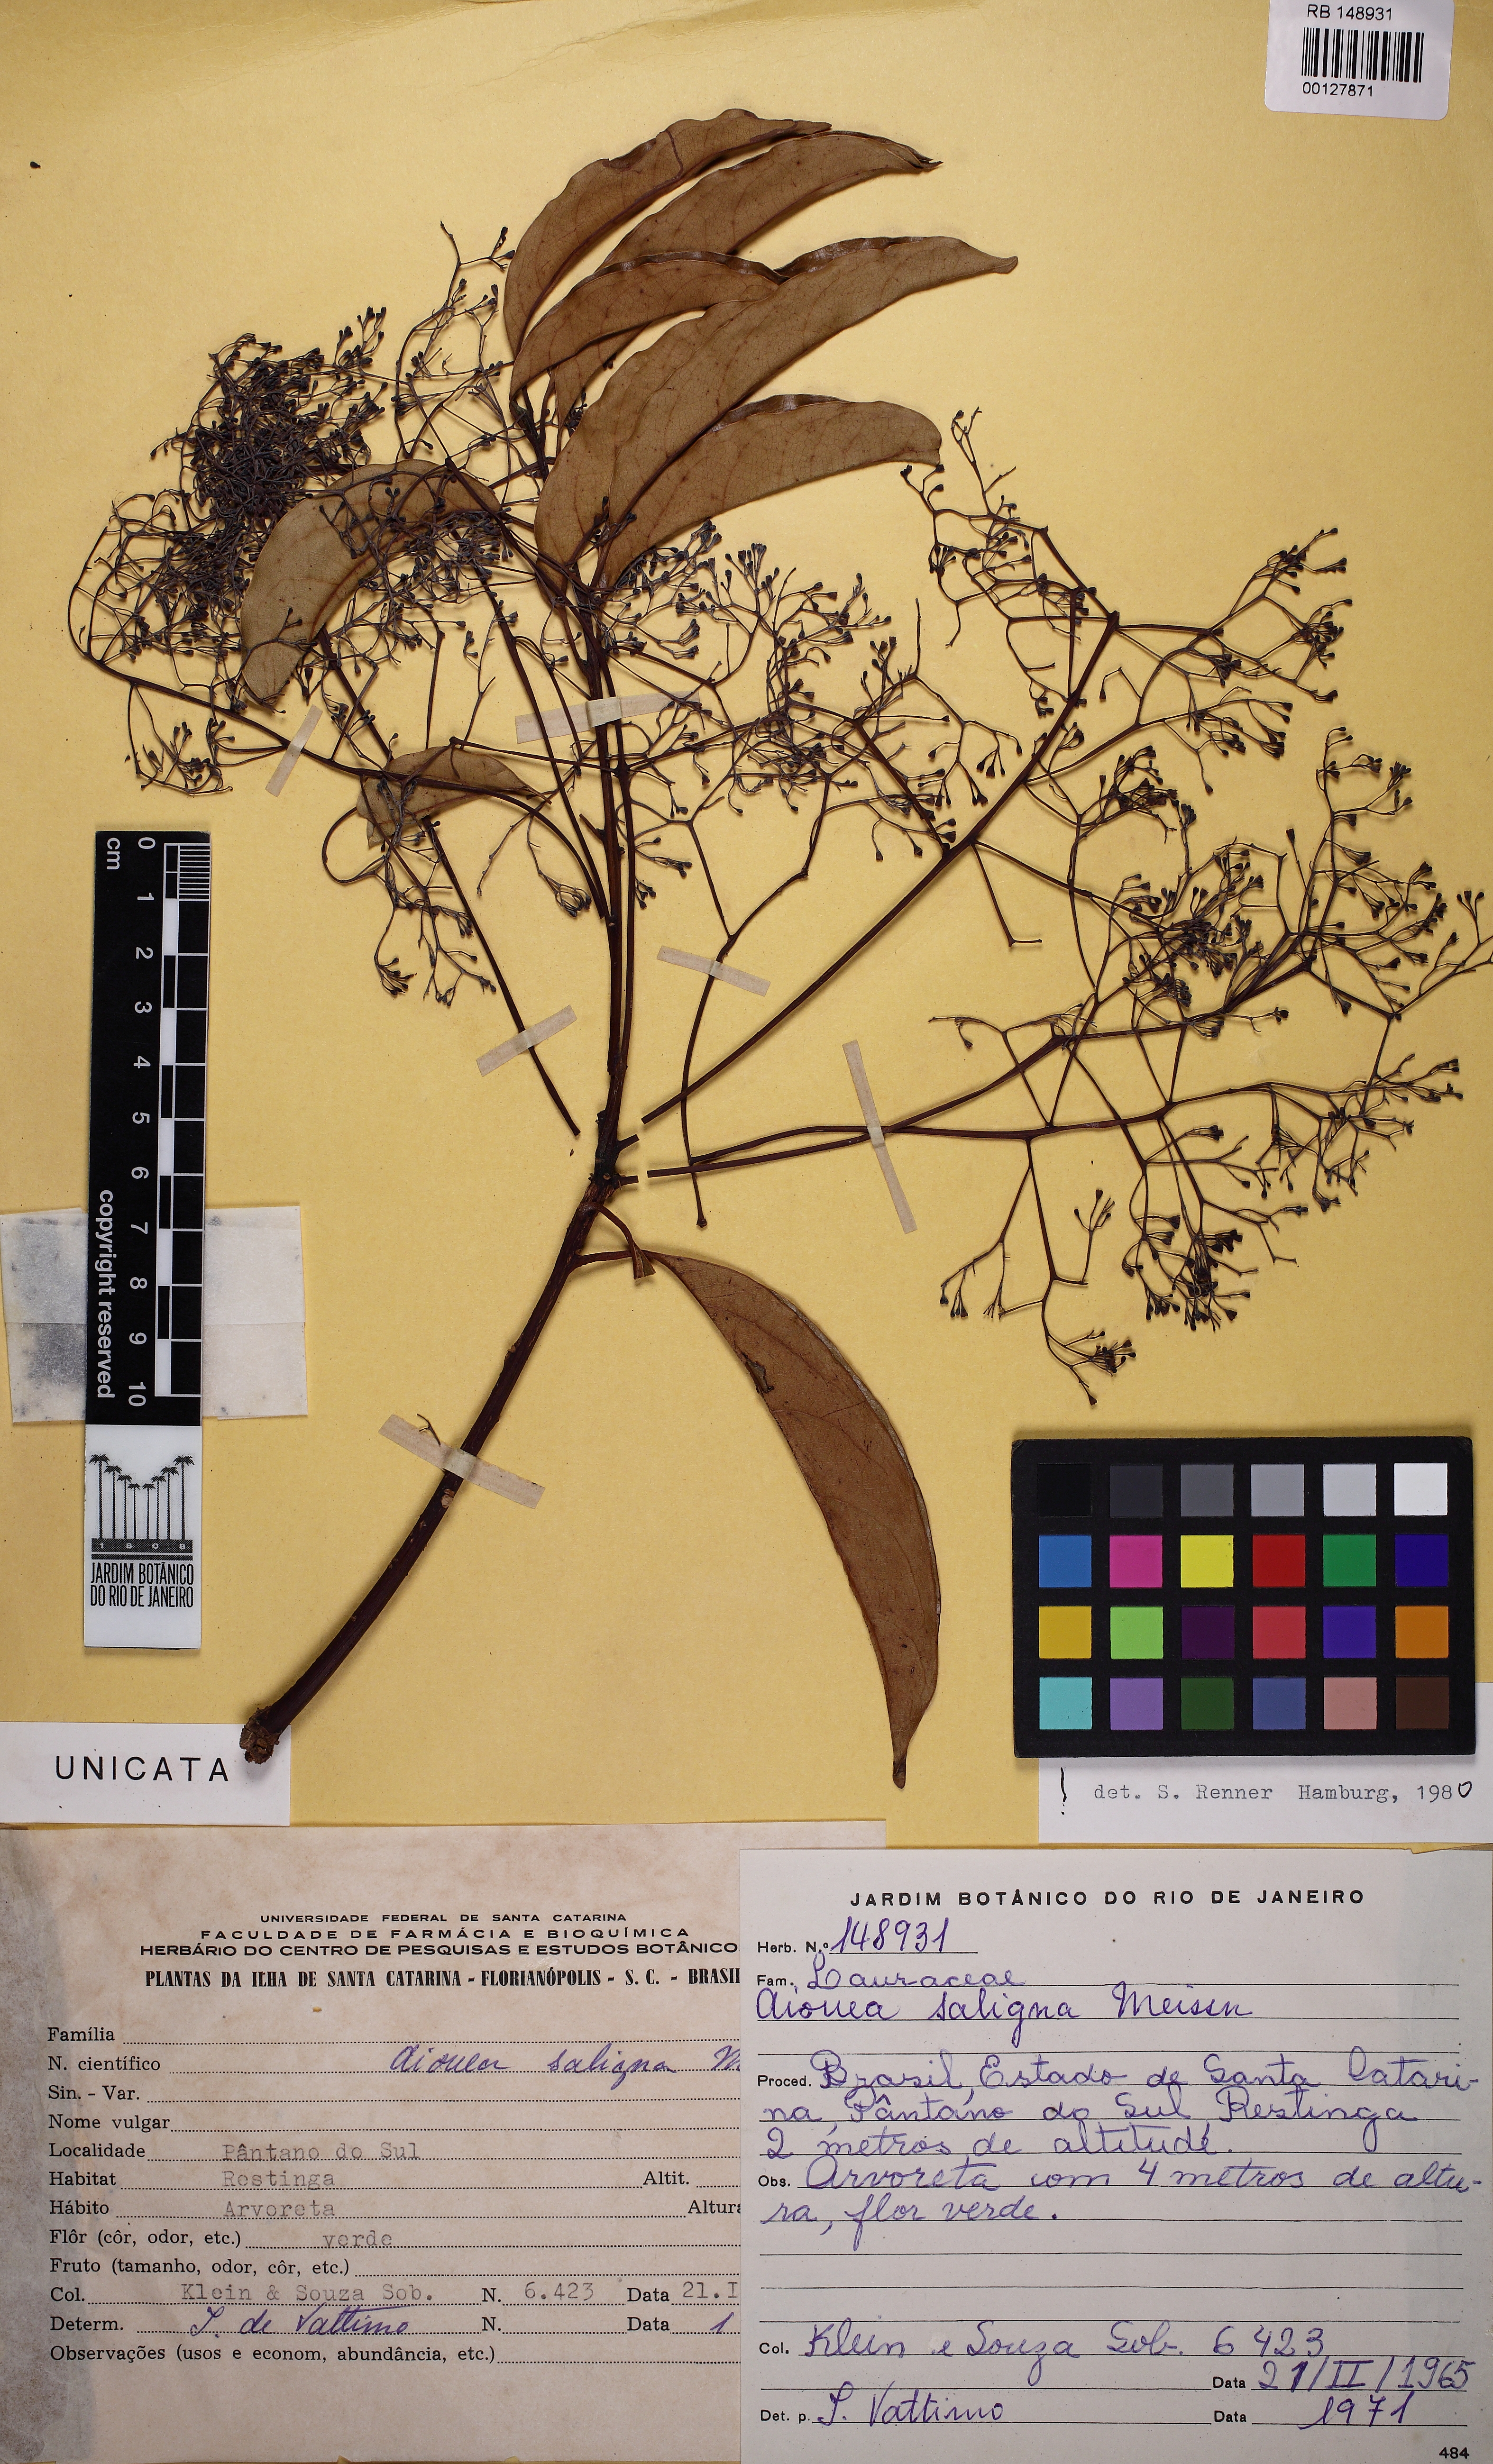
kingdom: Plantae
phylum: Tracheophyta
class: Magnoliopsida
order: Laurales
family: Lauraceae
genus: Aiouea
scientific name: Aiouea saligna
